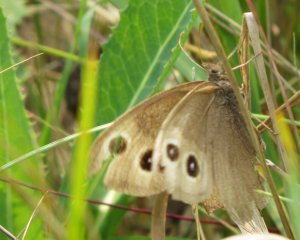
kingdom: Animalia
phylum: Arthropoda
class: Insecta
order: Lepidoptera
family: Nymphalidae
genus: Cercyonis
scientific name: Cercyonis pegala
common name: Common Wood-Nymph
